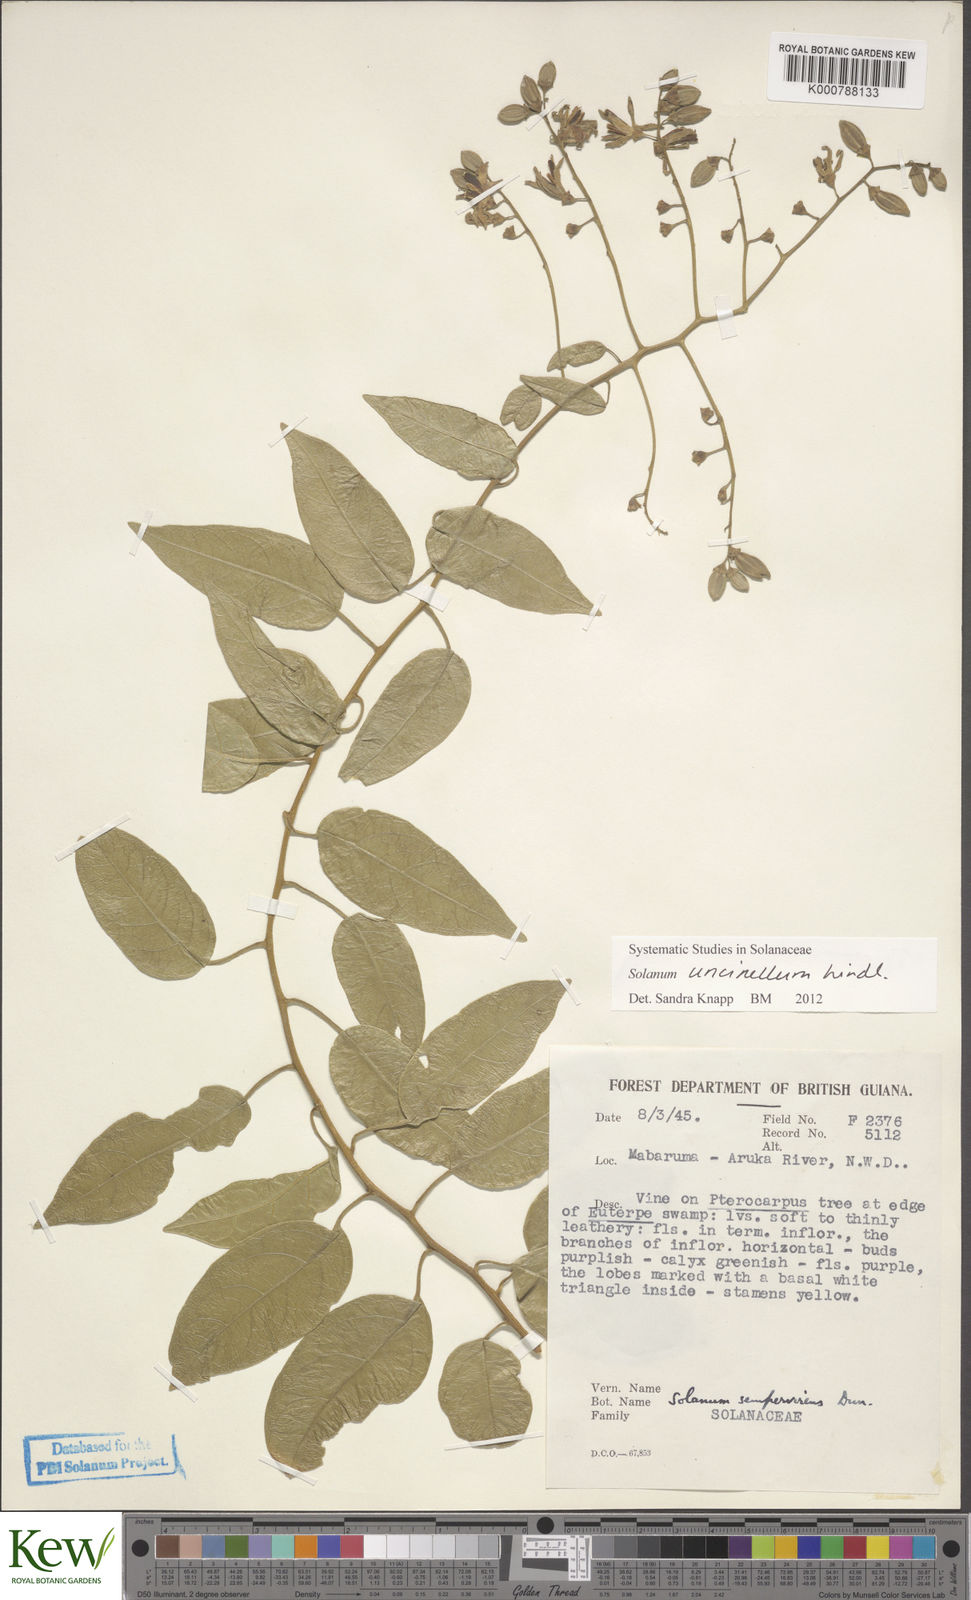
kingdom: Plantae
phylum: Tracheophyta
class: Magnoliopsida
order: Solanales
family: Solanaceae
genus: Solanum
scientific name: Solanum uncinellum
